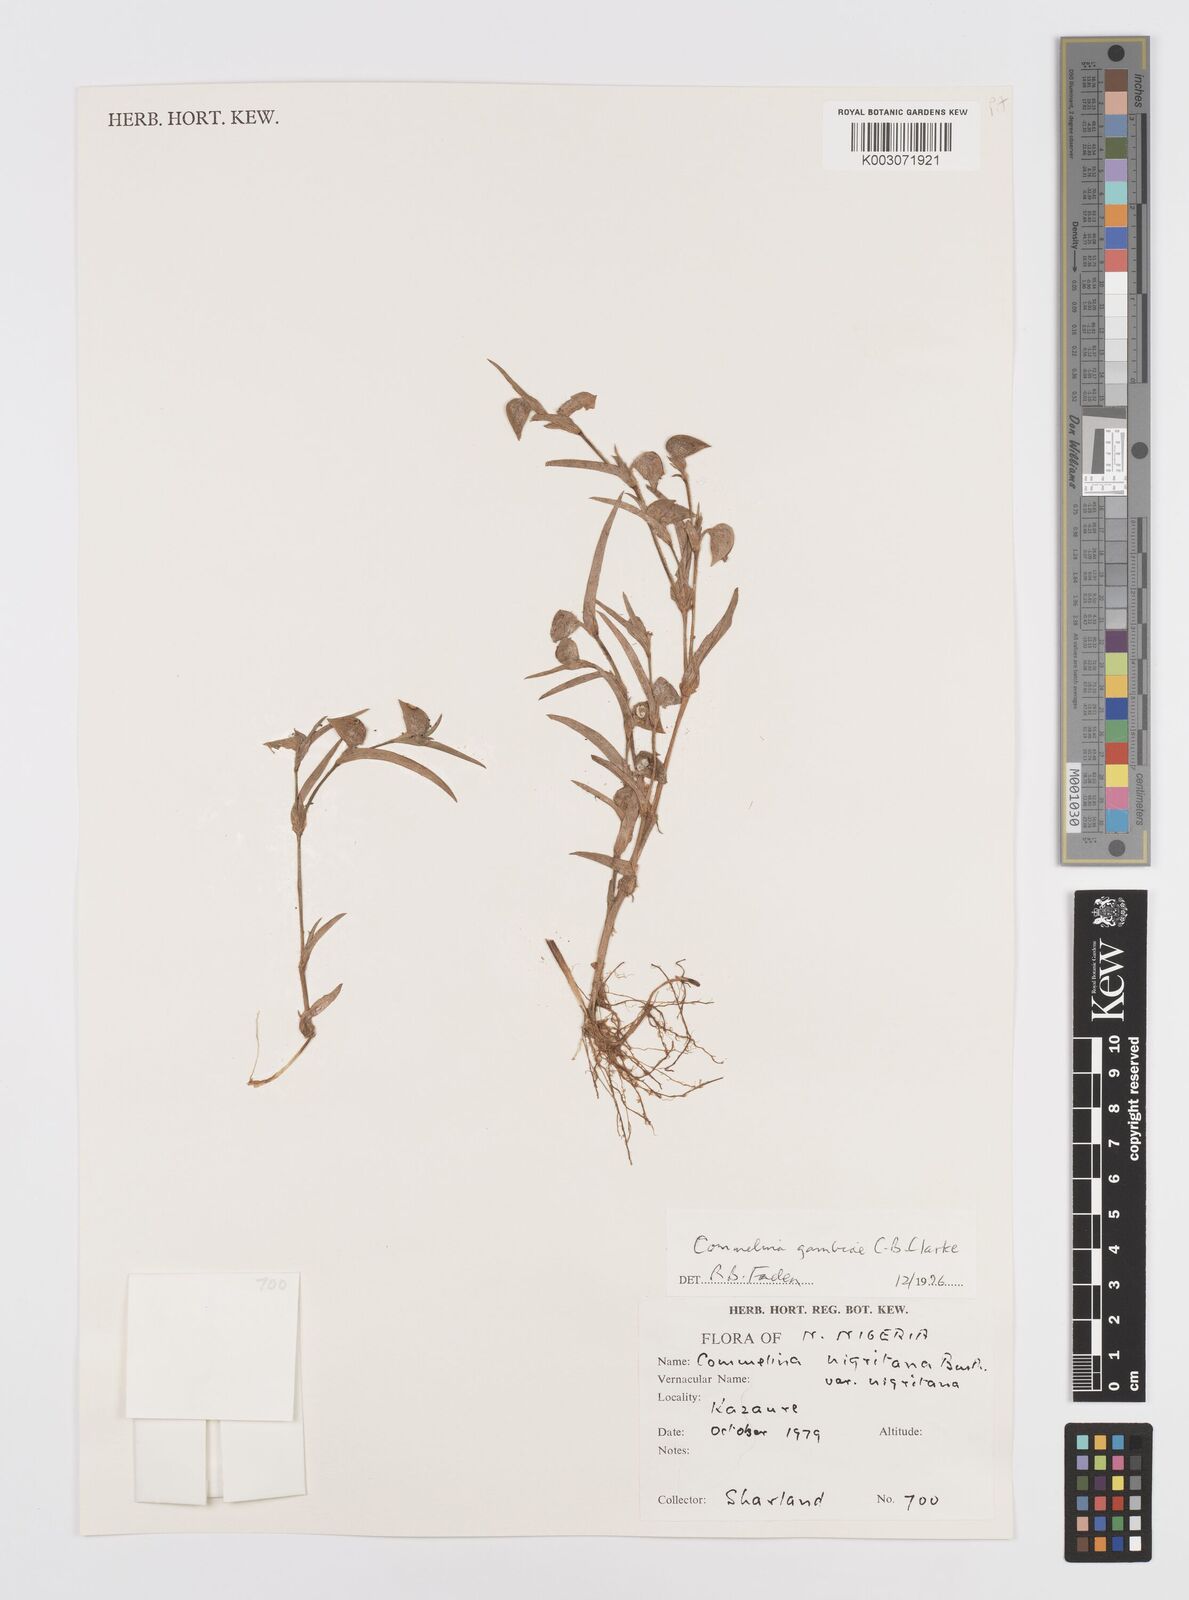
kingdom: Plantae
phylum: Tracheophyta
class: Liliopsida
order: Commelinales
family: Commelinaceae
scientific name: Commelinaceae
